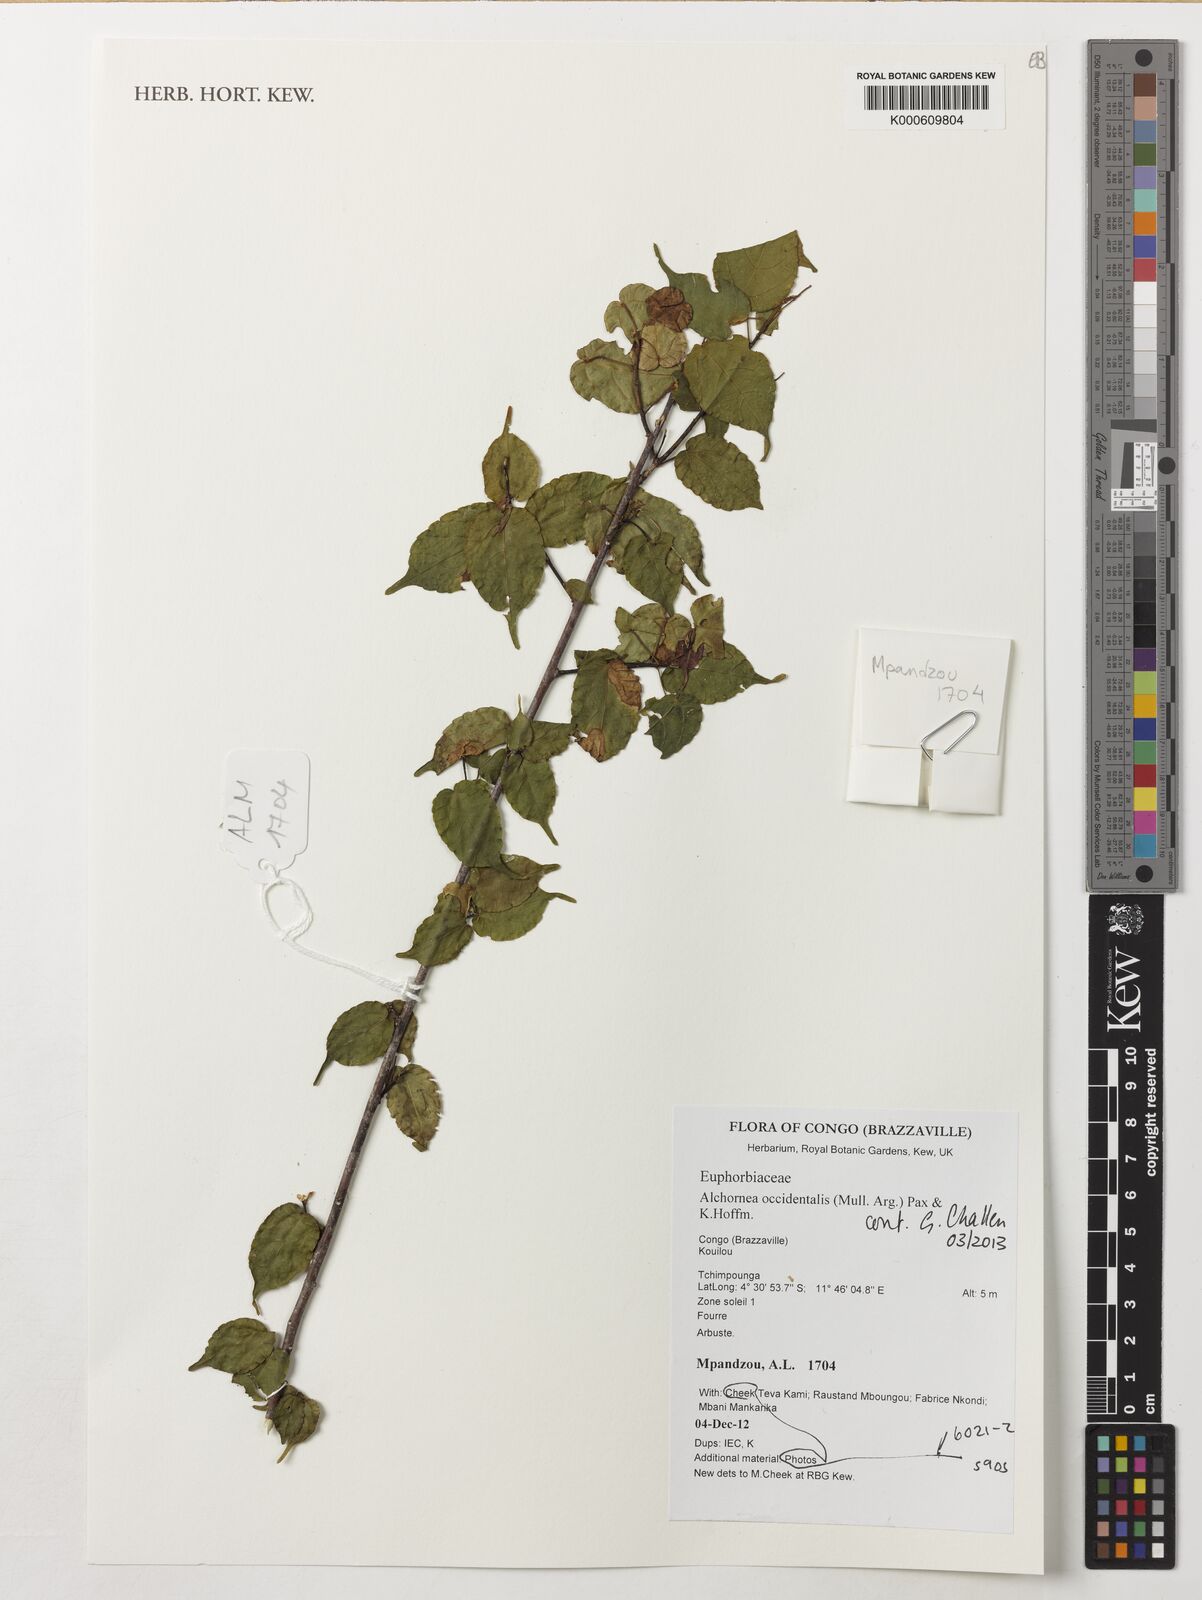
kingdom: Plantae
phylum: Tracheophyta
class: Magnoliopsida
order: Malpighiales
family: Euphorbiaceae
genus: Alchornea
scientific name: Alchornea occidentalis
